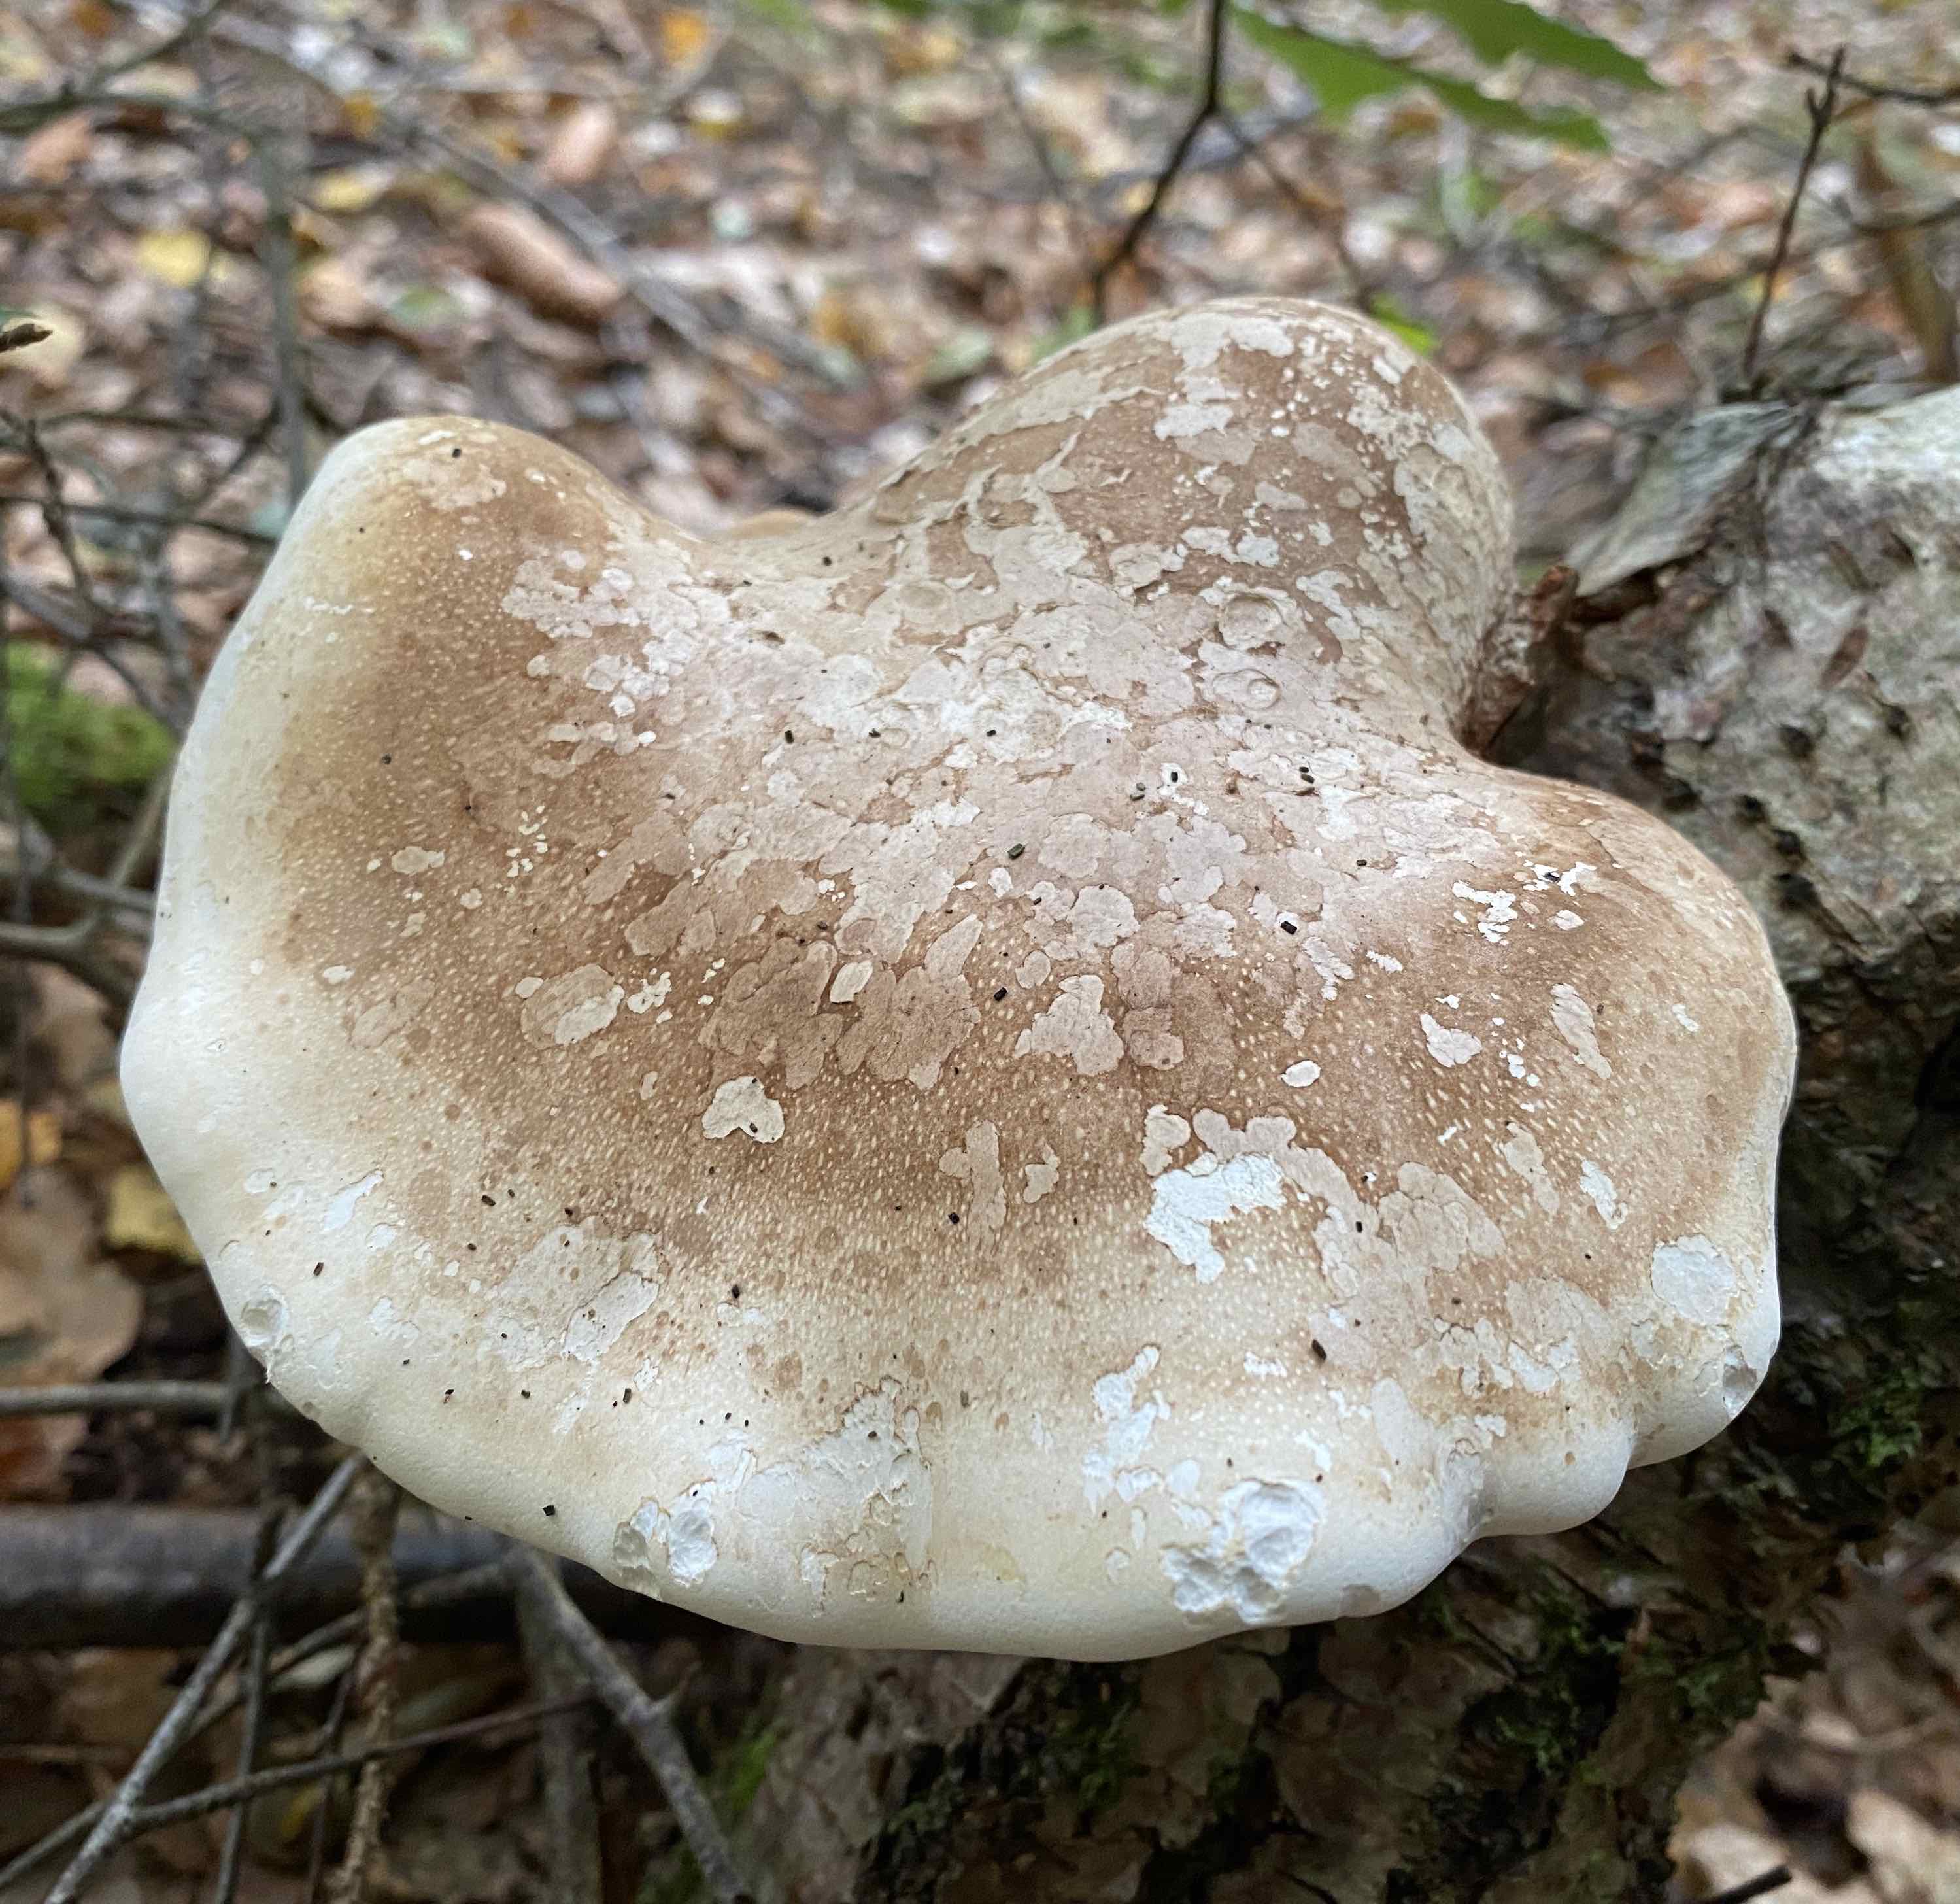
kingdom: Fungi
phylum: Basidiomycota
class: Agaricomycetes
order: Polyporales
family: Fomitopsidaceae
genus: Fomitopsis
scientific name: Fomitopsis betulina
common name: birkeporesvamp
